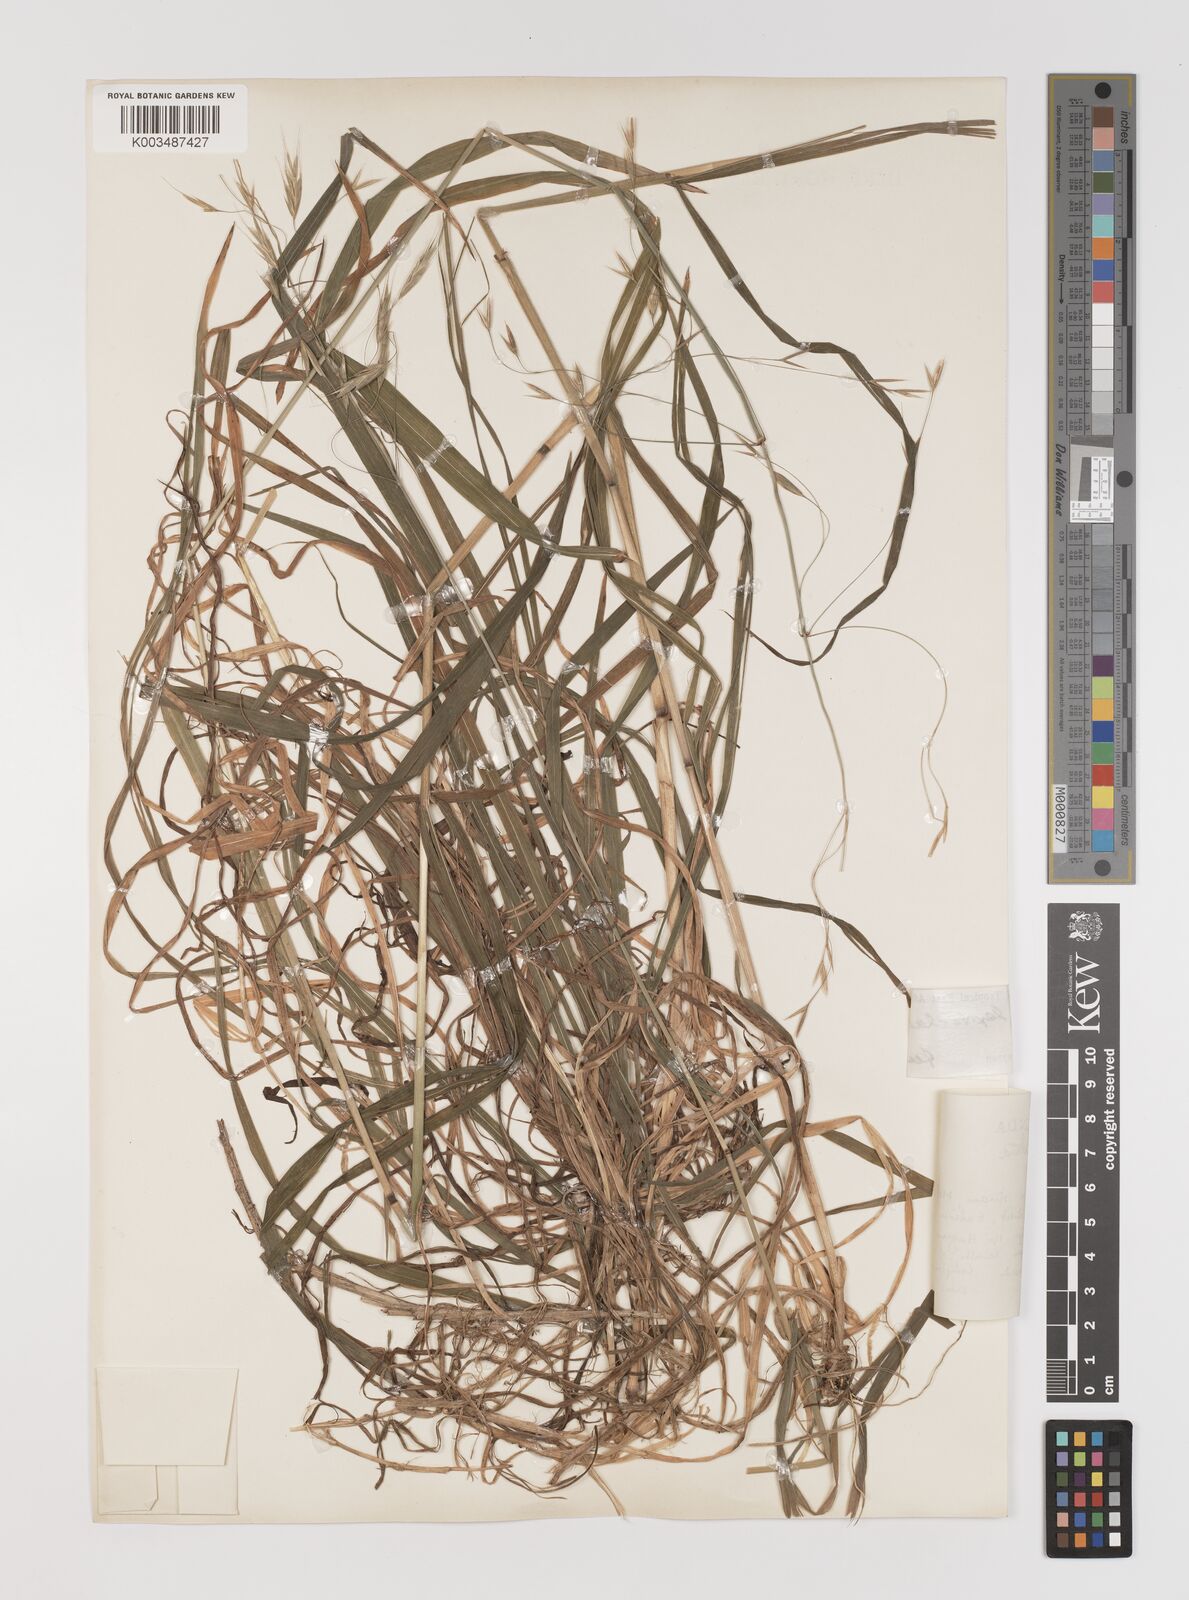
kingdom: Plantae
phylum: Tracheophyta
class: Liliopsida
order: Poales
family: Poaceae
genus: Bromus
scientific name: Bromus leptoclados
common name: Mountain bromegrass
